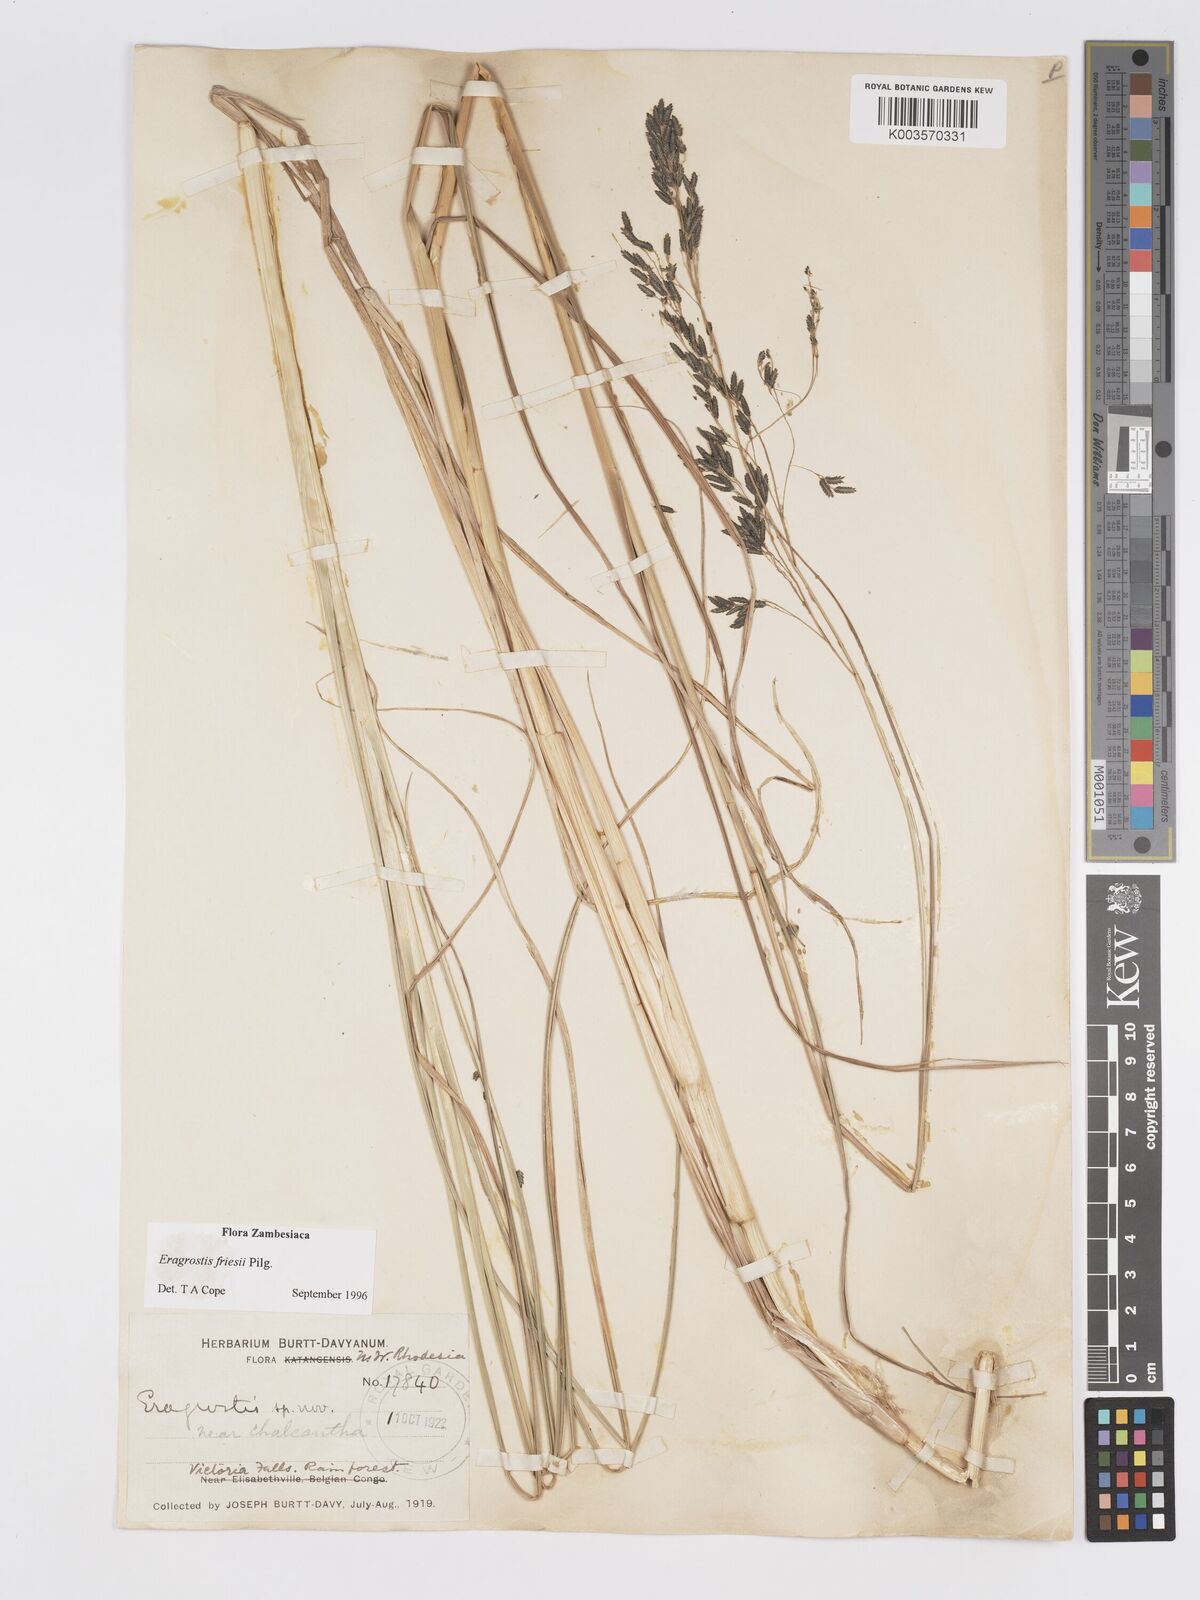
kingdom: Plantae
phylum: Tracheophyta
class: Liliopsida
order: Poales
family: Poaceae
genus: Eragrostis
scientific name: Eragrostis friesii
